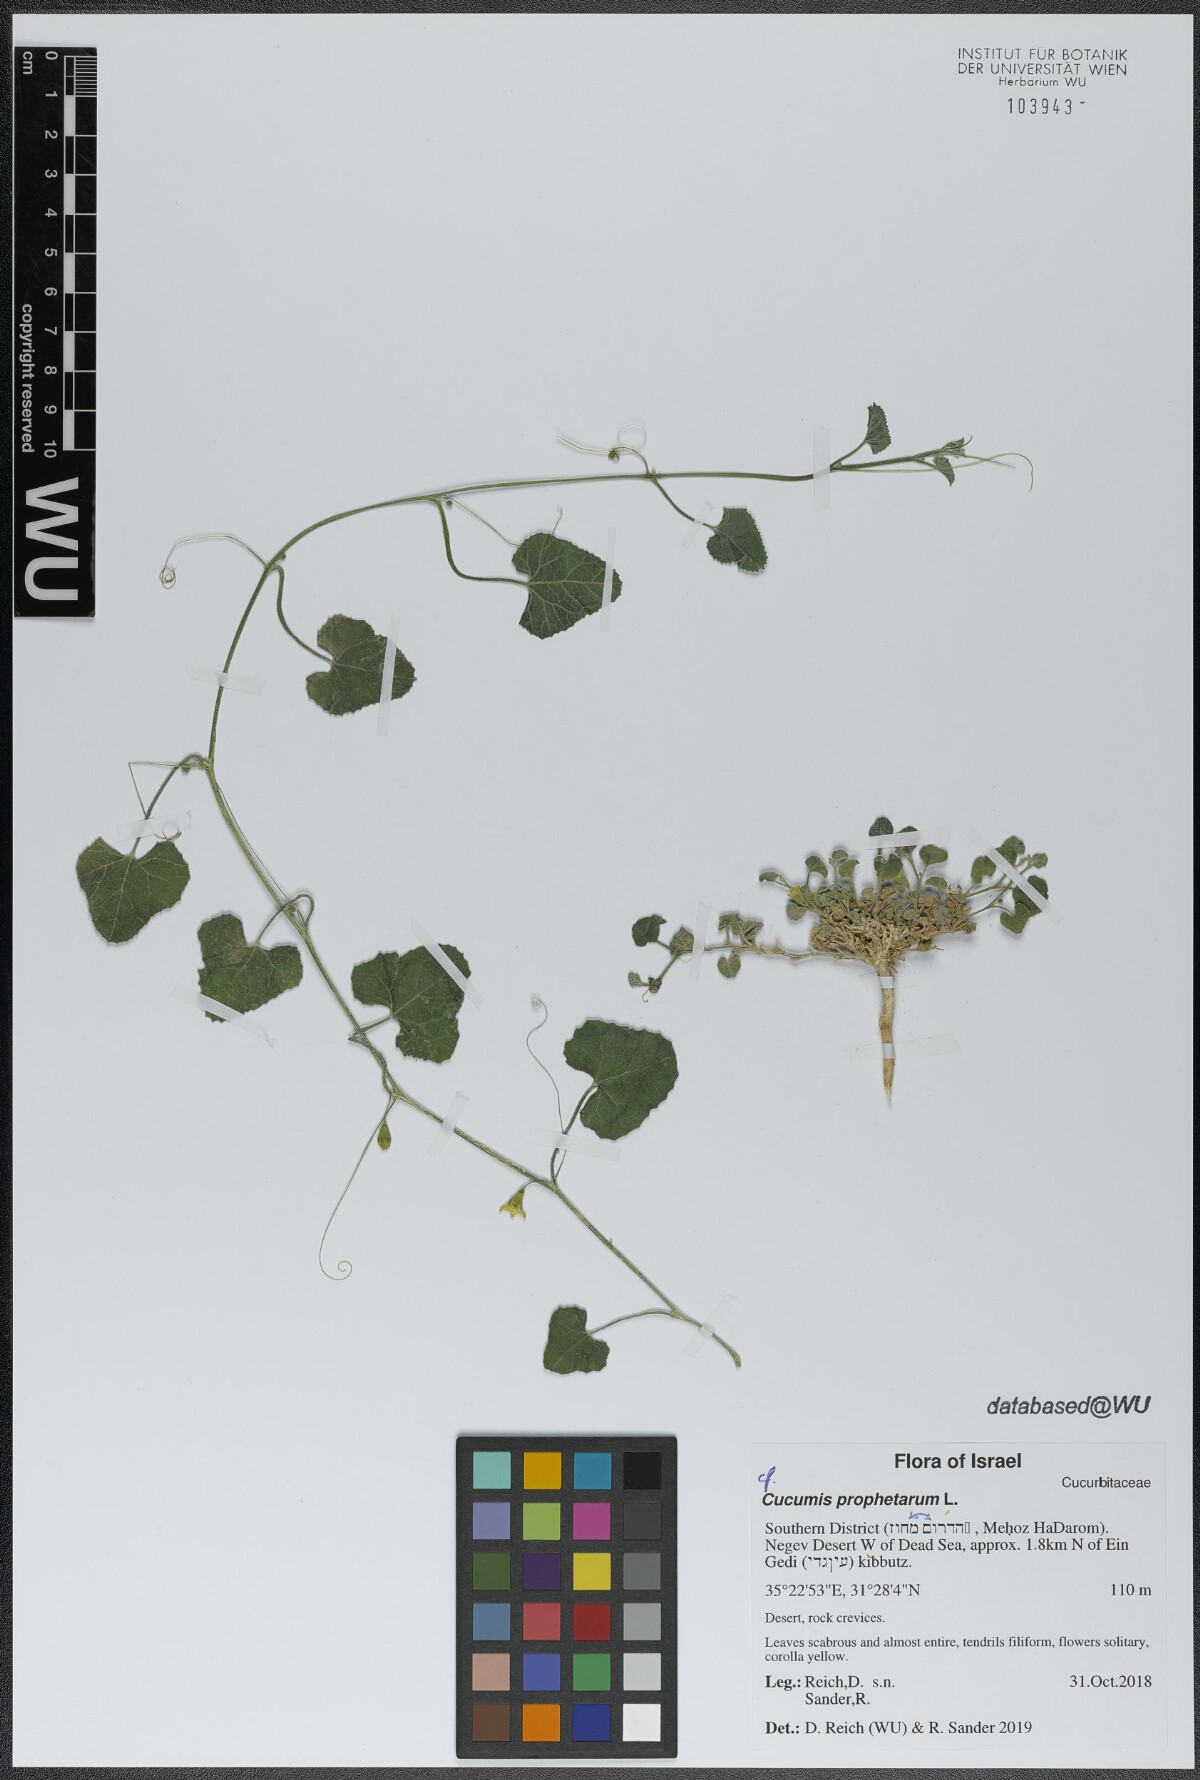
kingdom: Plantae
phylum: Tracheophyta
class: Magnoliopsida
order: Cucurbitales
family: Cucurbitaceae
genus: Cucumis
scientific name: Cucumis prophetarum
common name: Wild cucumber
